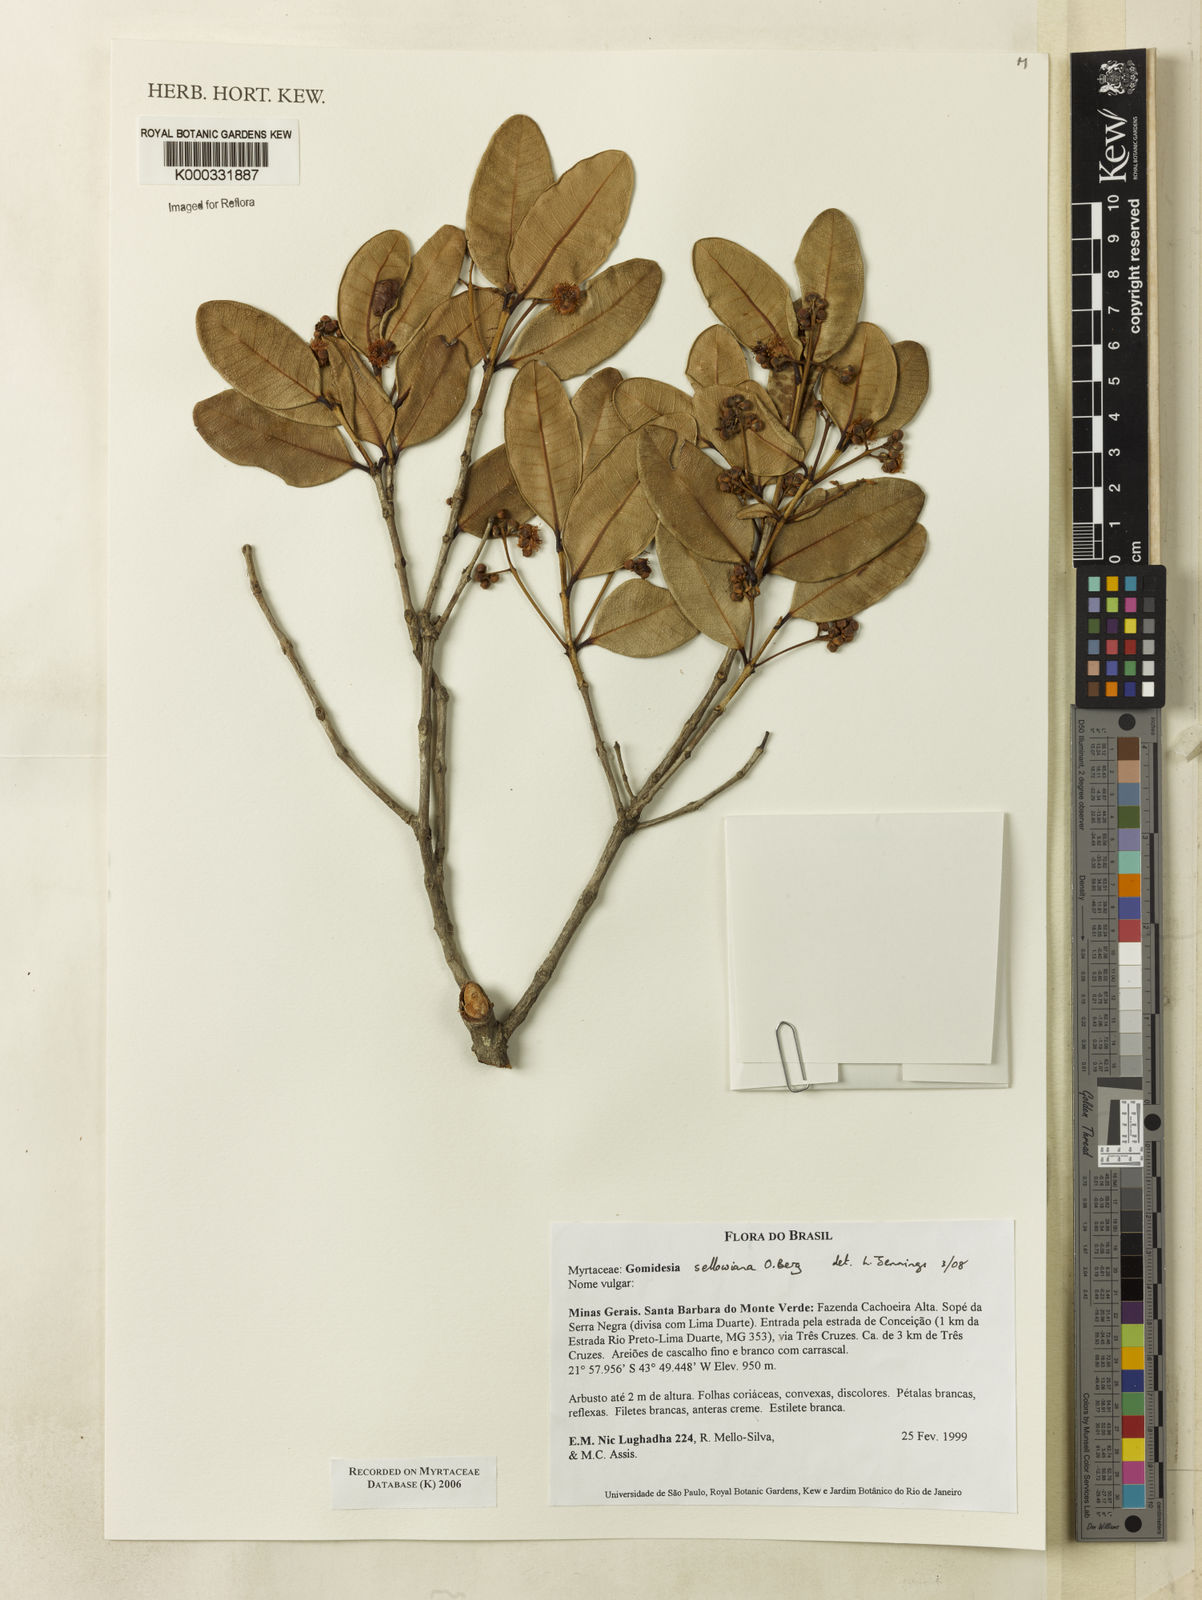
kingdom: Plantae
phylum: Tracheophyta
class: Magnoliopsida
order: Myrtales
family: Myrtaceae
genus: Myrcia
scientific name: Myrcia hartwegiana
